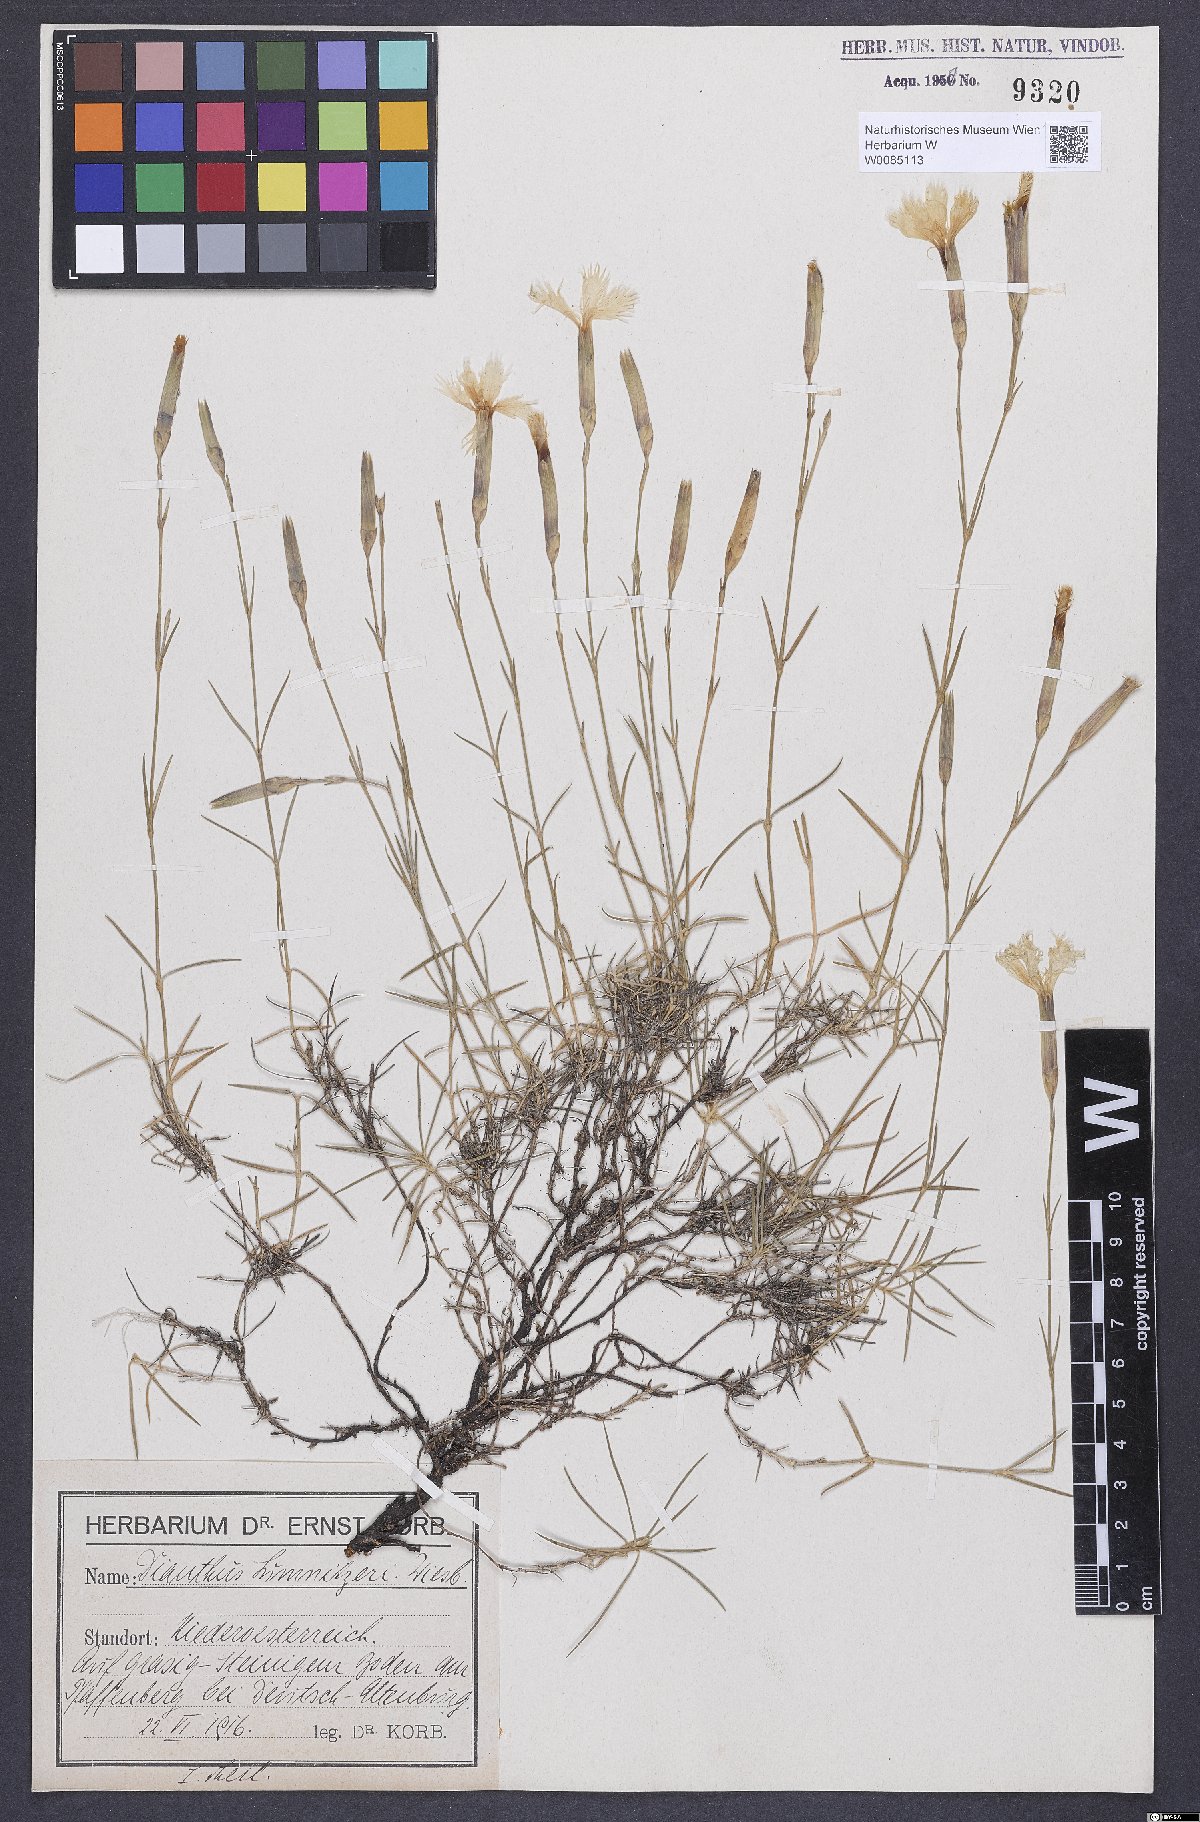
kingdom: Plantae
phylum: Tracheophyta
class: Magnoliopsida
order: Caryophyllales
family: Caryophyllaceae
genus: Dianthus
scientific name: Dianthus praecox
